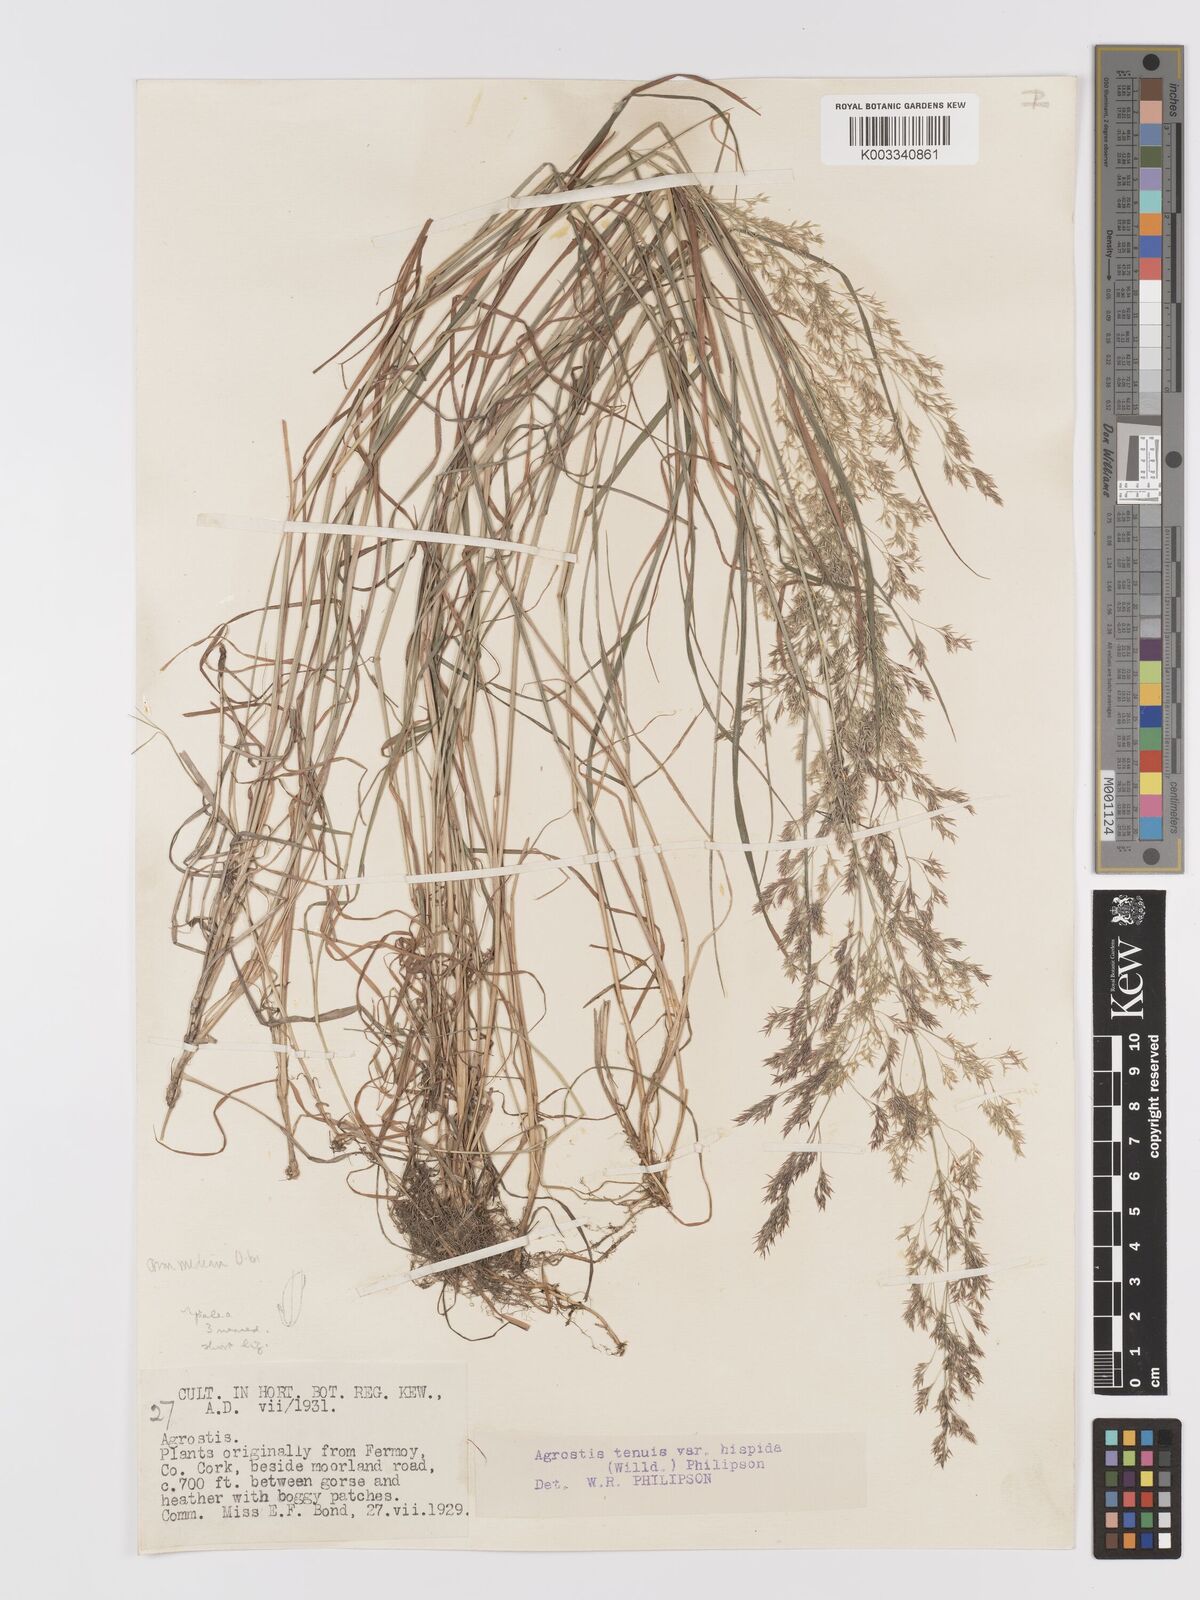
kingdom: Plantae
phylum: Tracheophyta
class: Liliopsida
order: Poales
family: Poaceae
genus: Agrostis
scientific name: Agrostis capillaris
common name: Colonial bentgrass
